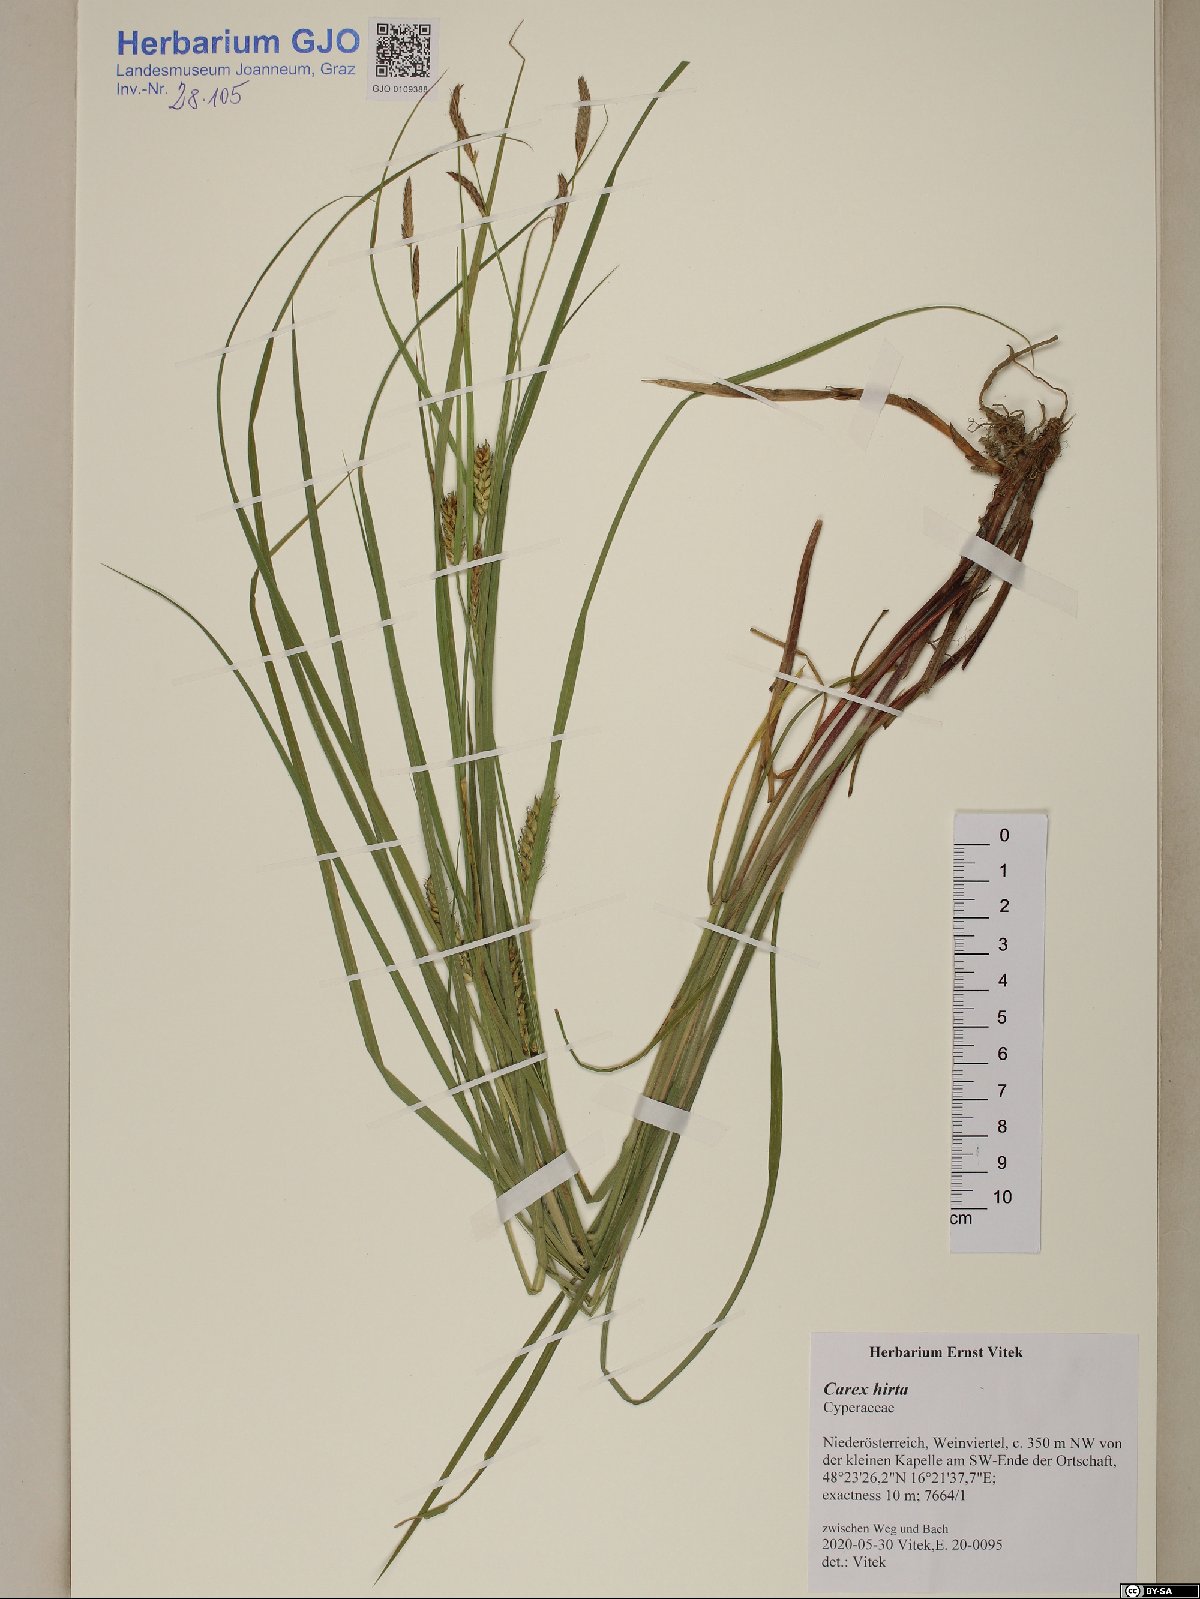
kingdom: Plantae
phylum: Tracheophyta
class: Liliopsida
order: Poales
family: Cyperaceae
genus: Carex
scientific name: Carex hirta
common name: Hairy sedge
